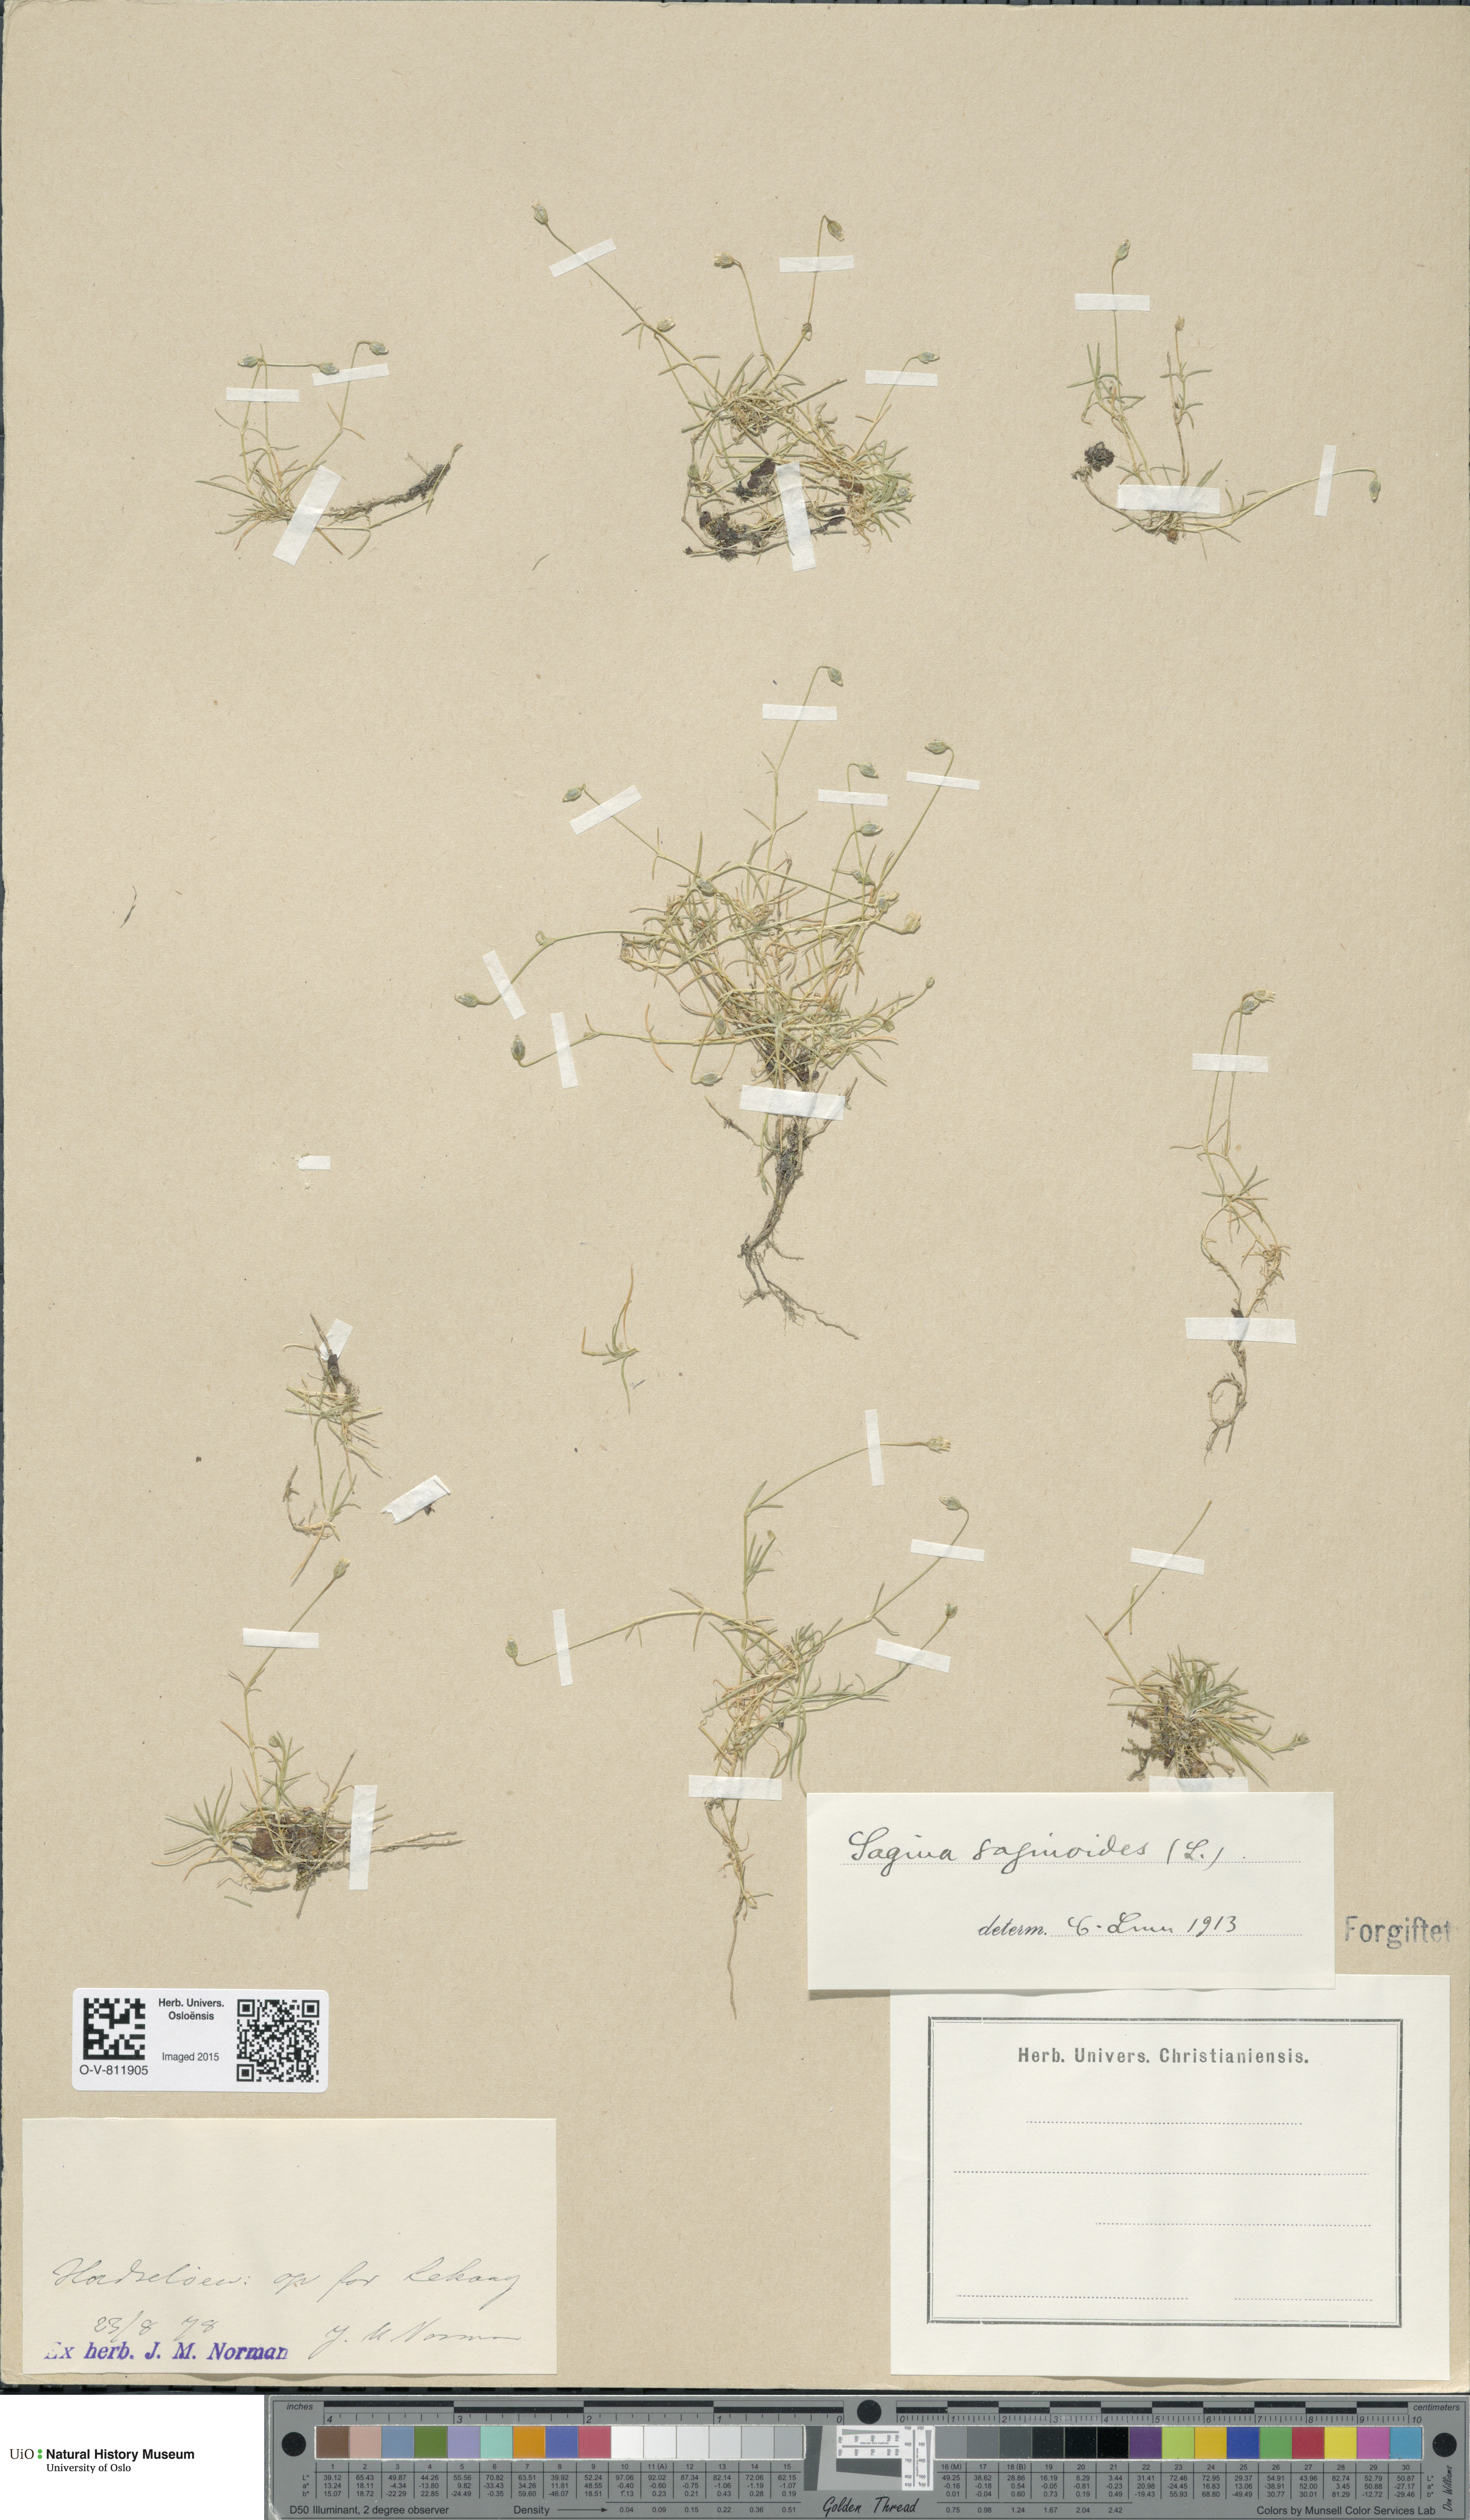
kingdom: Plantae
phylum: Tracheophyta
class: Magnoliopsida
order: Caryophyllales
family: Caryophyllaceae
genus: Sagina
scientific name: Sagina saginoides
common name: Alpine pearlwort
